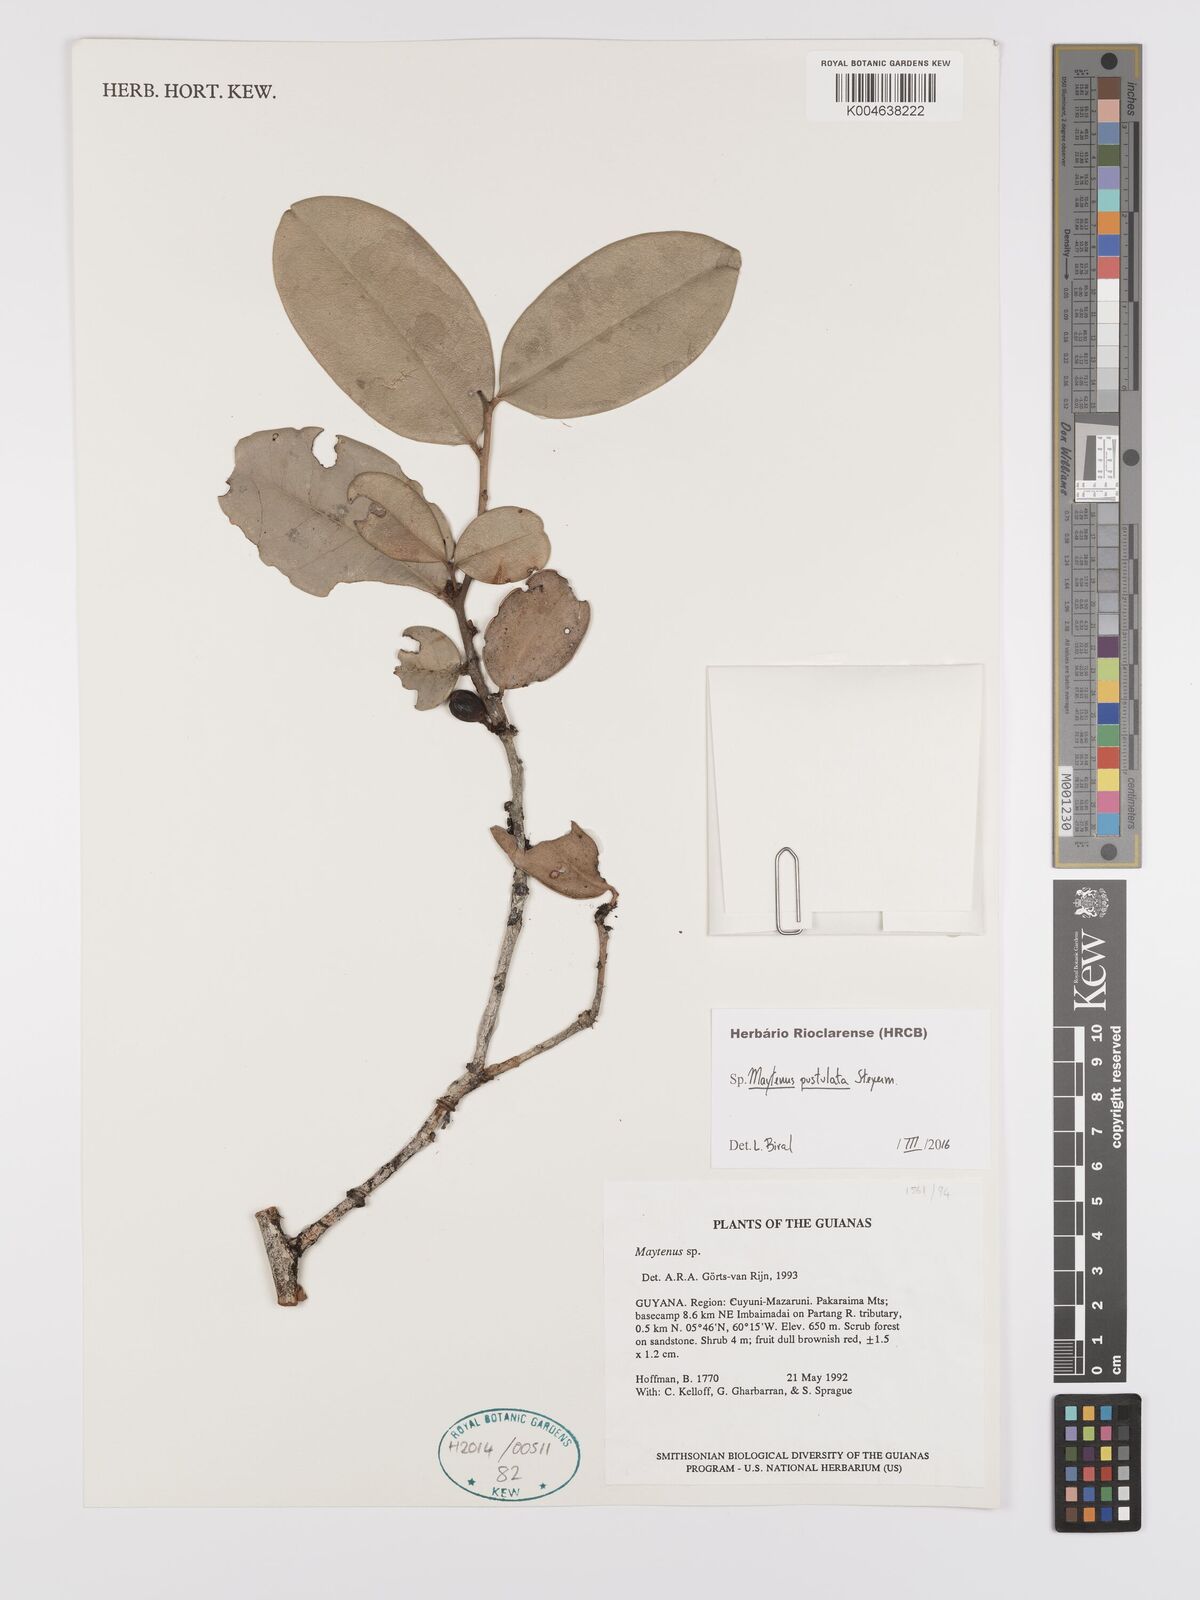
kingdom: Plantae
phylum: Tracheophyta
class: Magnoliopsida
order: Celastrales
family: Celastraceae
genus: Monteverdia
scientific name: Monteverdia pustulata
